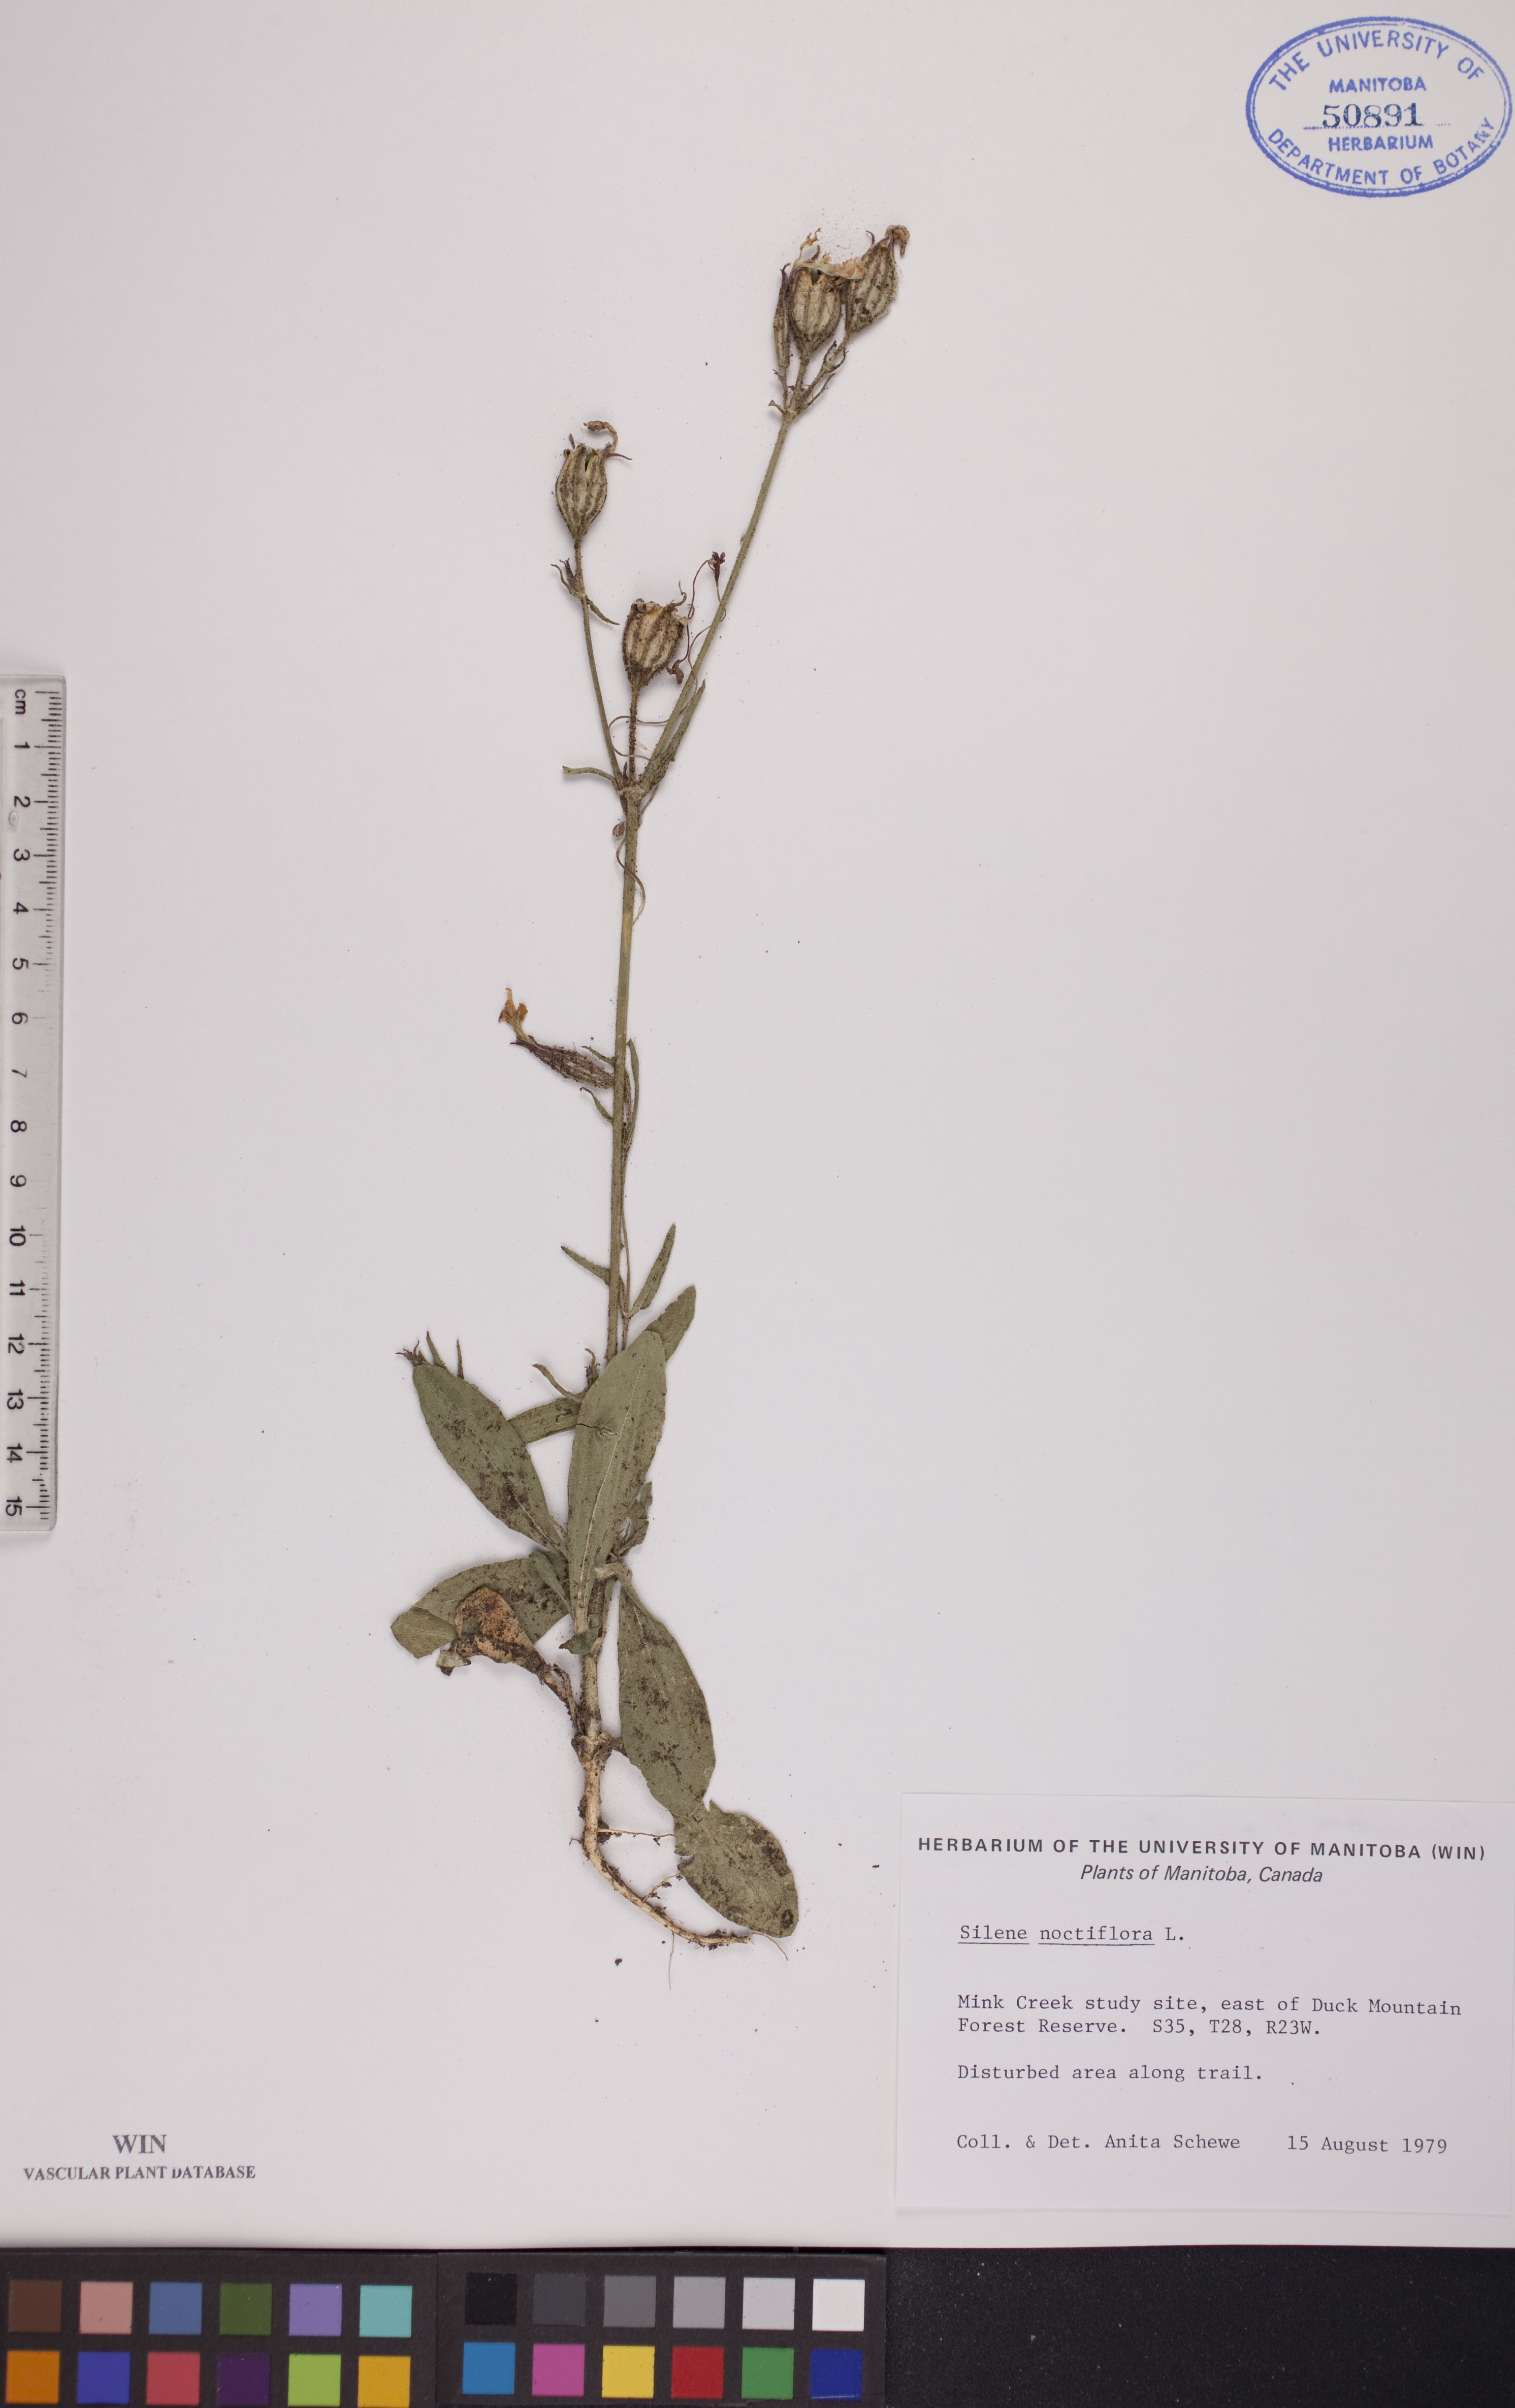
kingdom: Plantae
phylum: Tracheophyta
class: Magnoliopsida
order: Caryophyllales
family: Caryophyllaceae
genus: Silene
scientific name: Silene noctiflora
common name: Night-flowering catchfly
